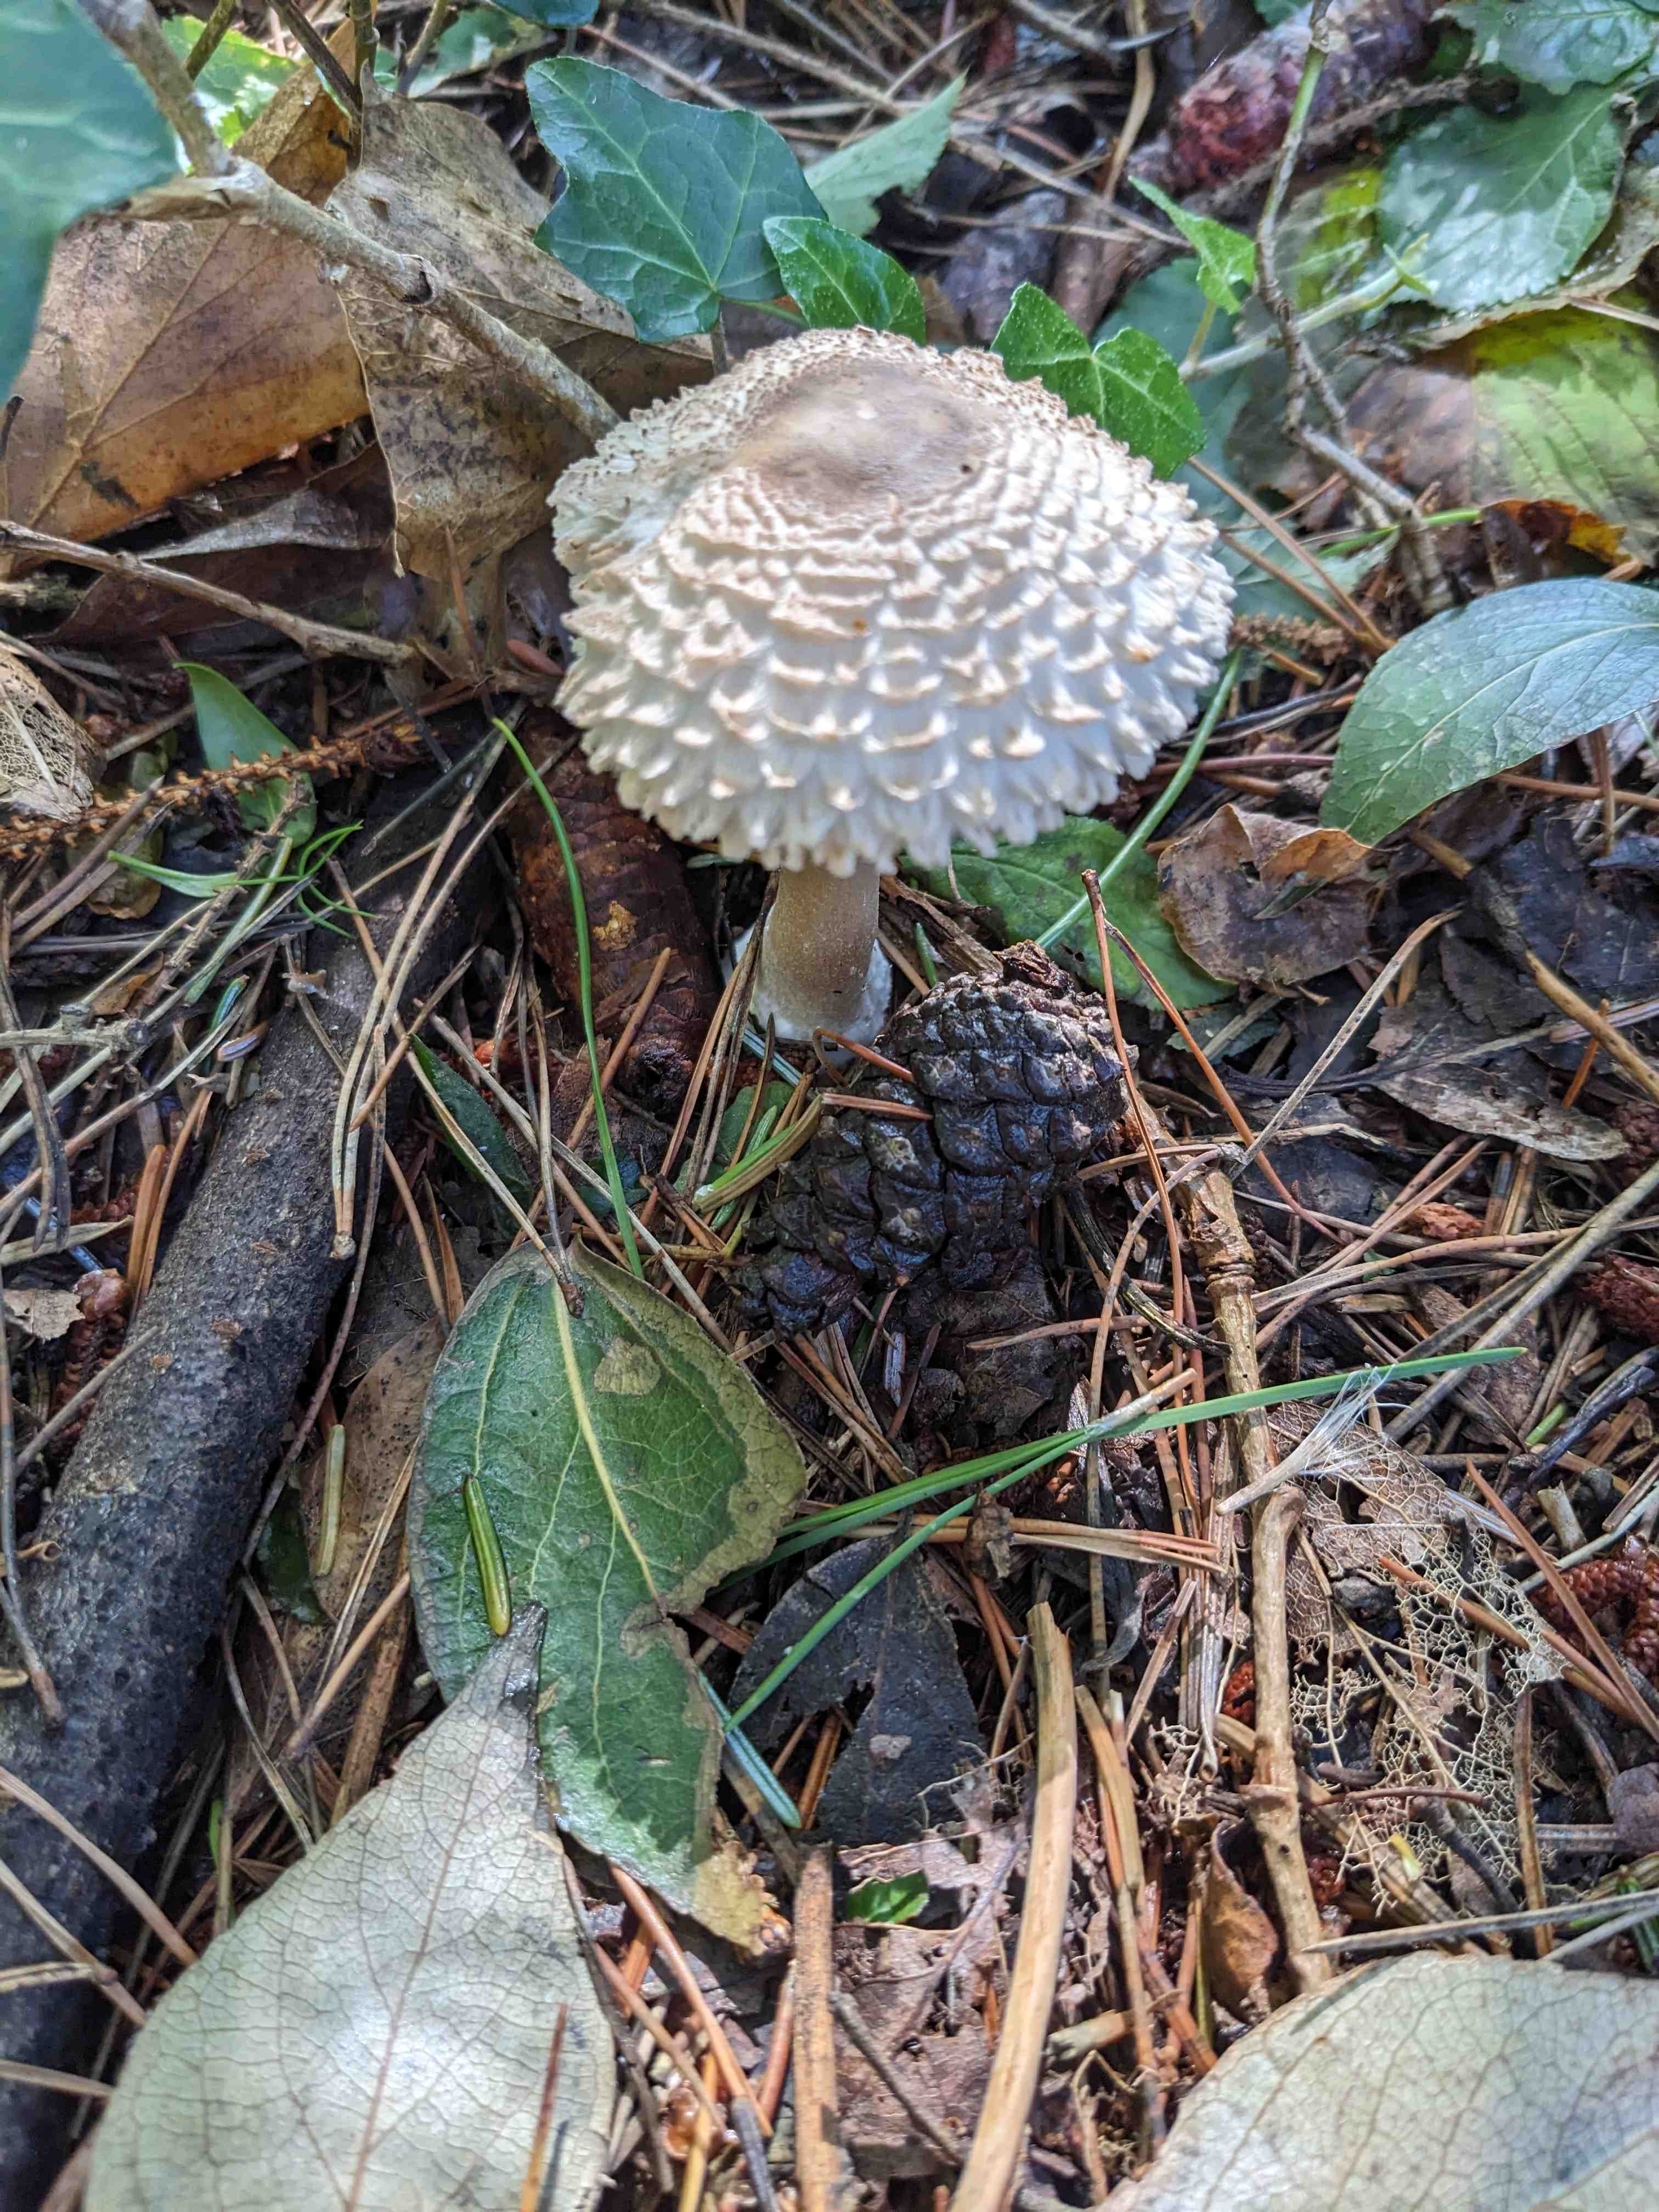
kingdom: Fungi
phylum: Basidiomycota
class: Agaricomycetes
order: Agaricales
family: Agaricaceae
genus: Leucoagaricus
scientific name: Leucoagaricus nympharum
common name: gran-silkehat
